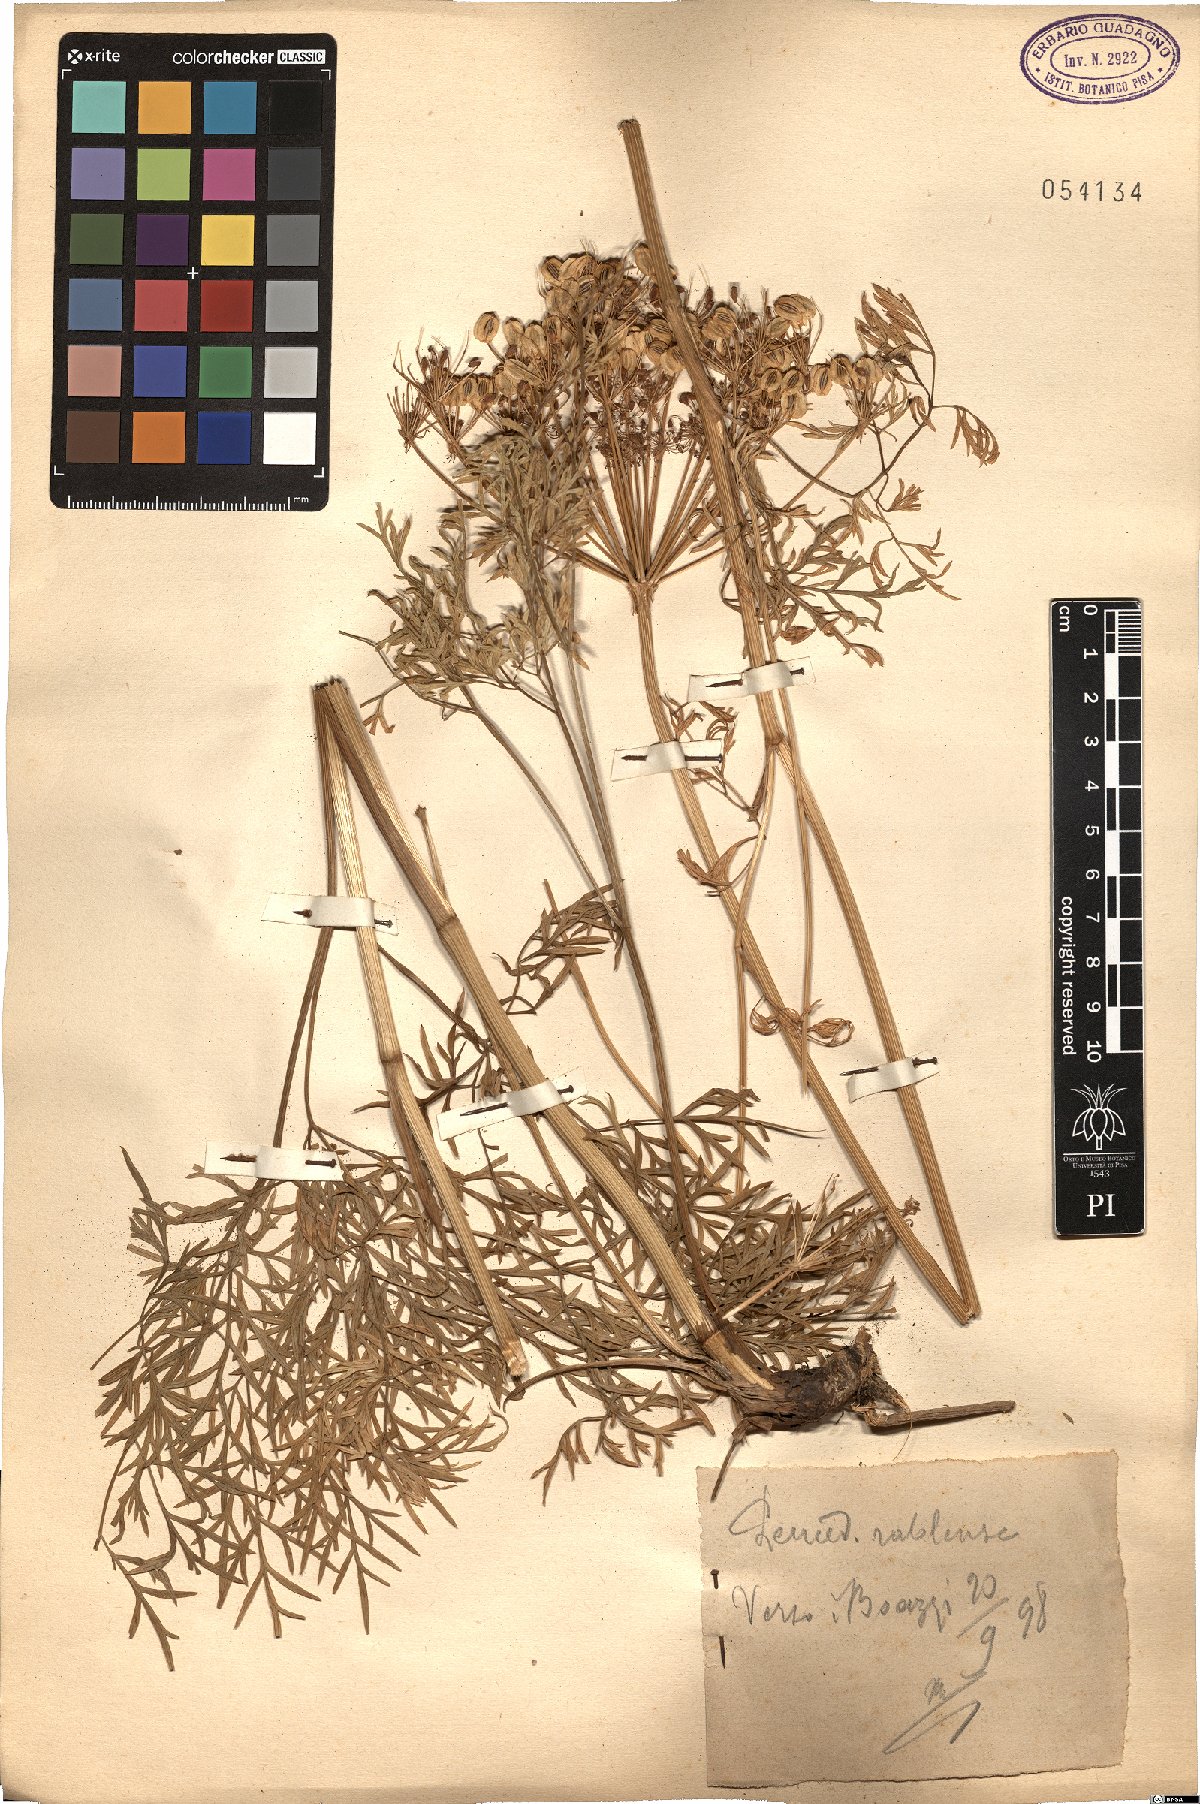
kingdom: Plantae
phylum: Tracheophyta
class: Magnoliopsida
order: Apiales
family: Apiaceae
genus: Peucedanum
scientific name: Peucedanum rablense
